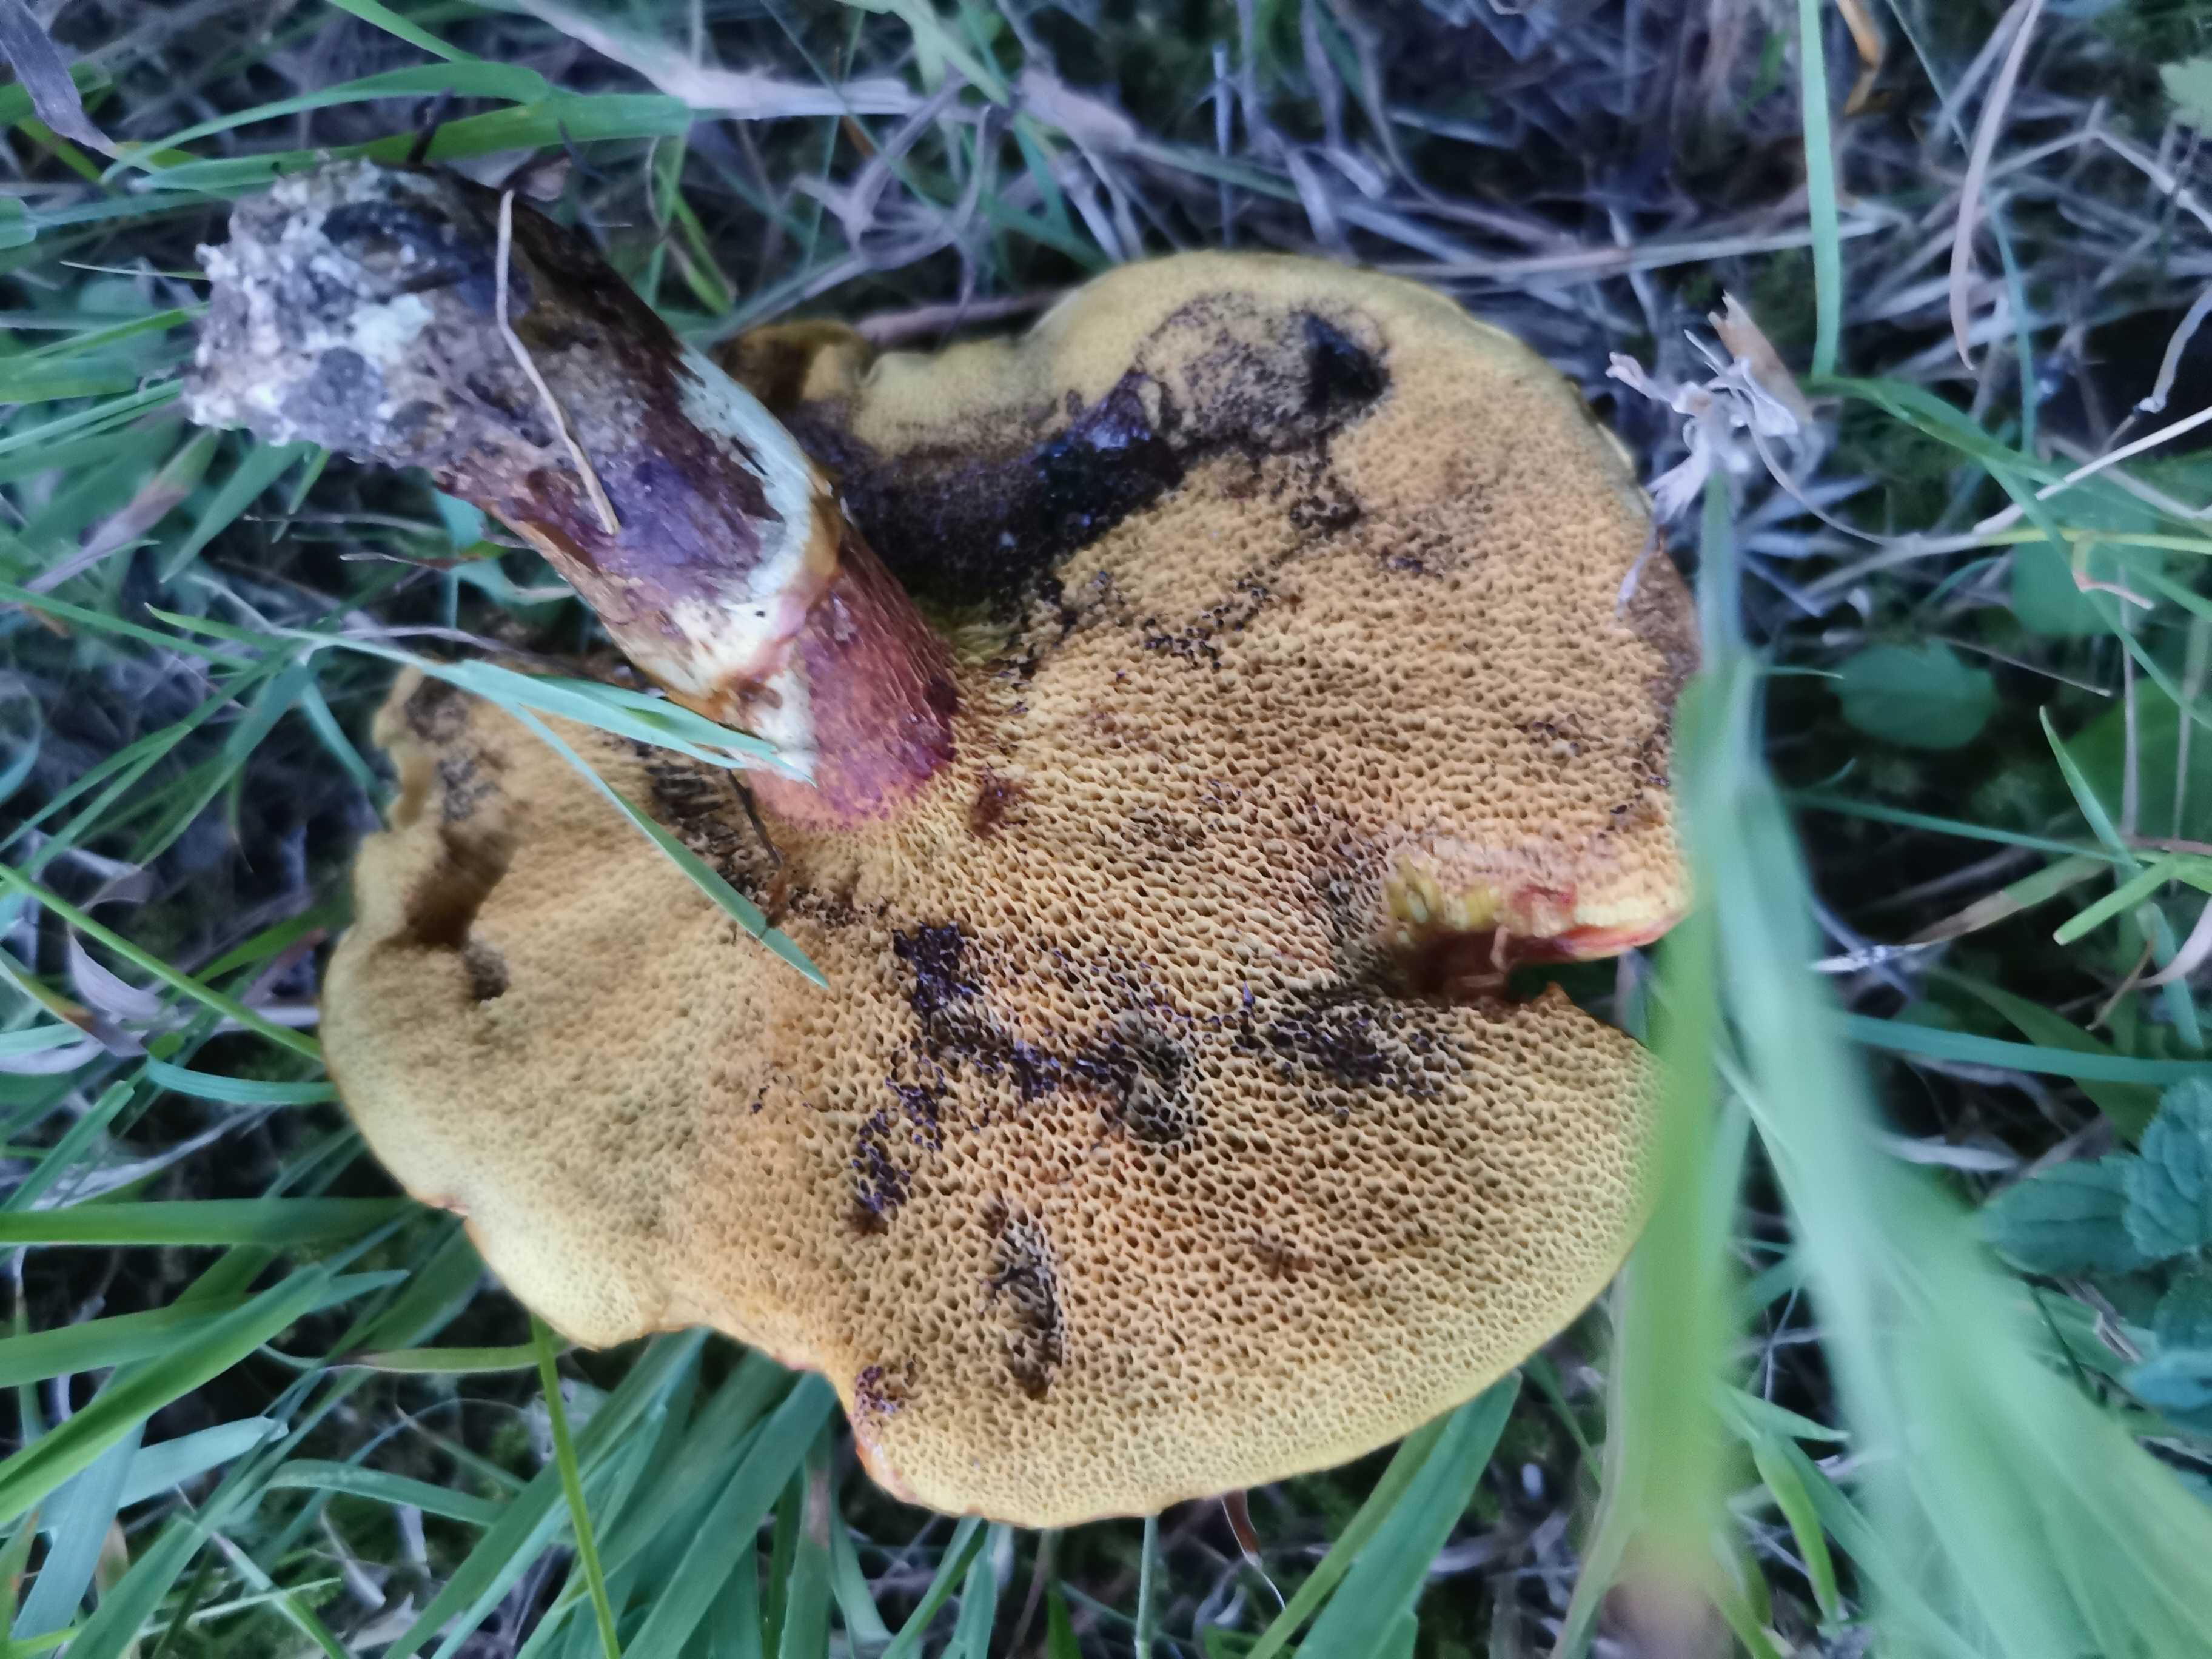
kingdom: Fungi
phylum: Basidiomycota
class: Agaricomycetes
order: Boletales
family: Suillaceae
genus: Suillus
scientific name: Suillus grevillei
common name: lærke-slimrørhat
